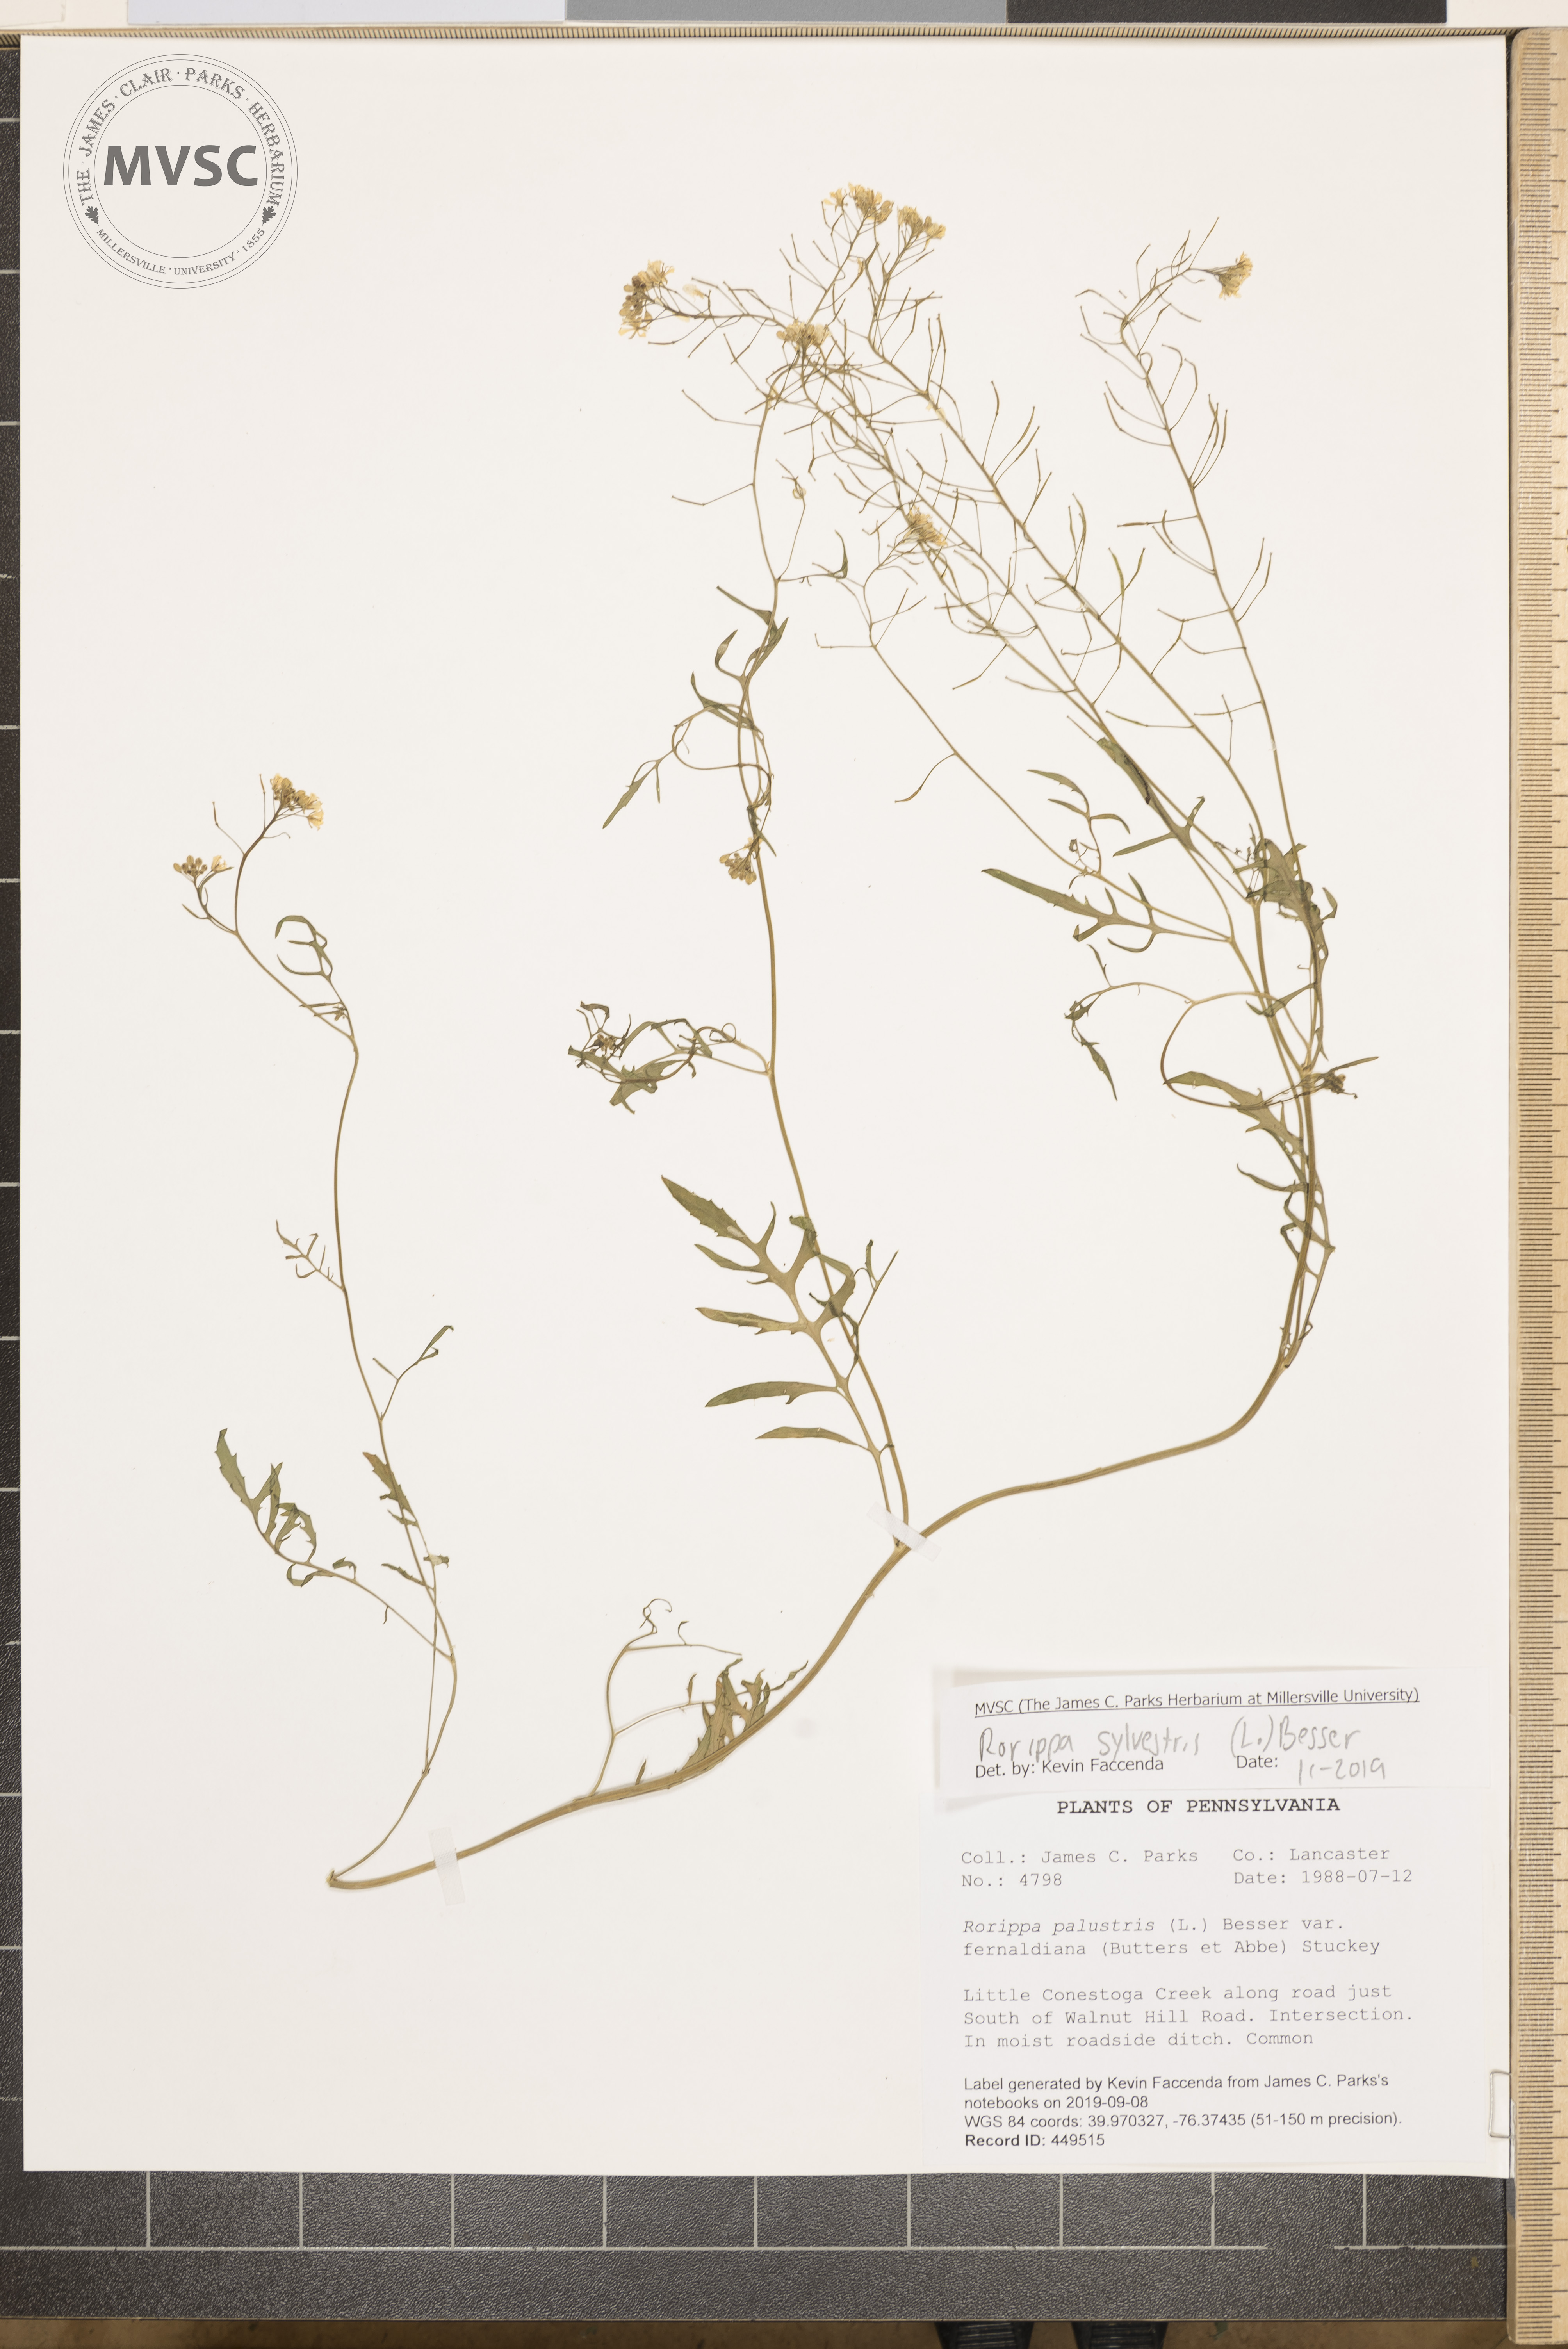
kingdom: Plantae
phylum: Tracheophyta
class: Magnoliopsida
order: Brassicales
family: Brassicaceae
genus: Rorippa
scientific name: Rorippa sylvestris
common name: Creeping yellowcress
